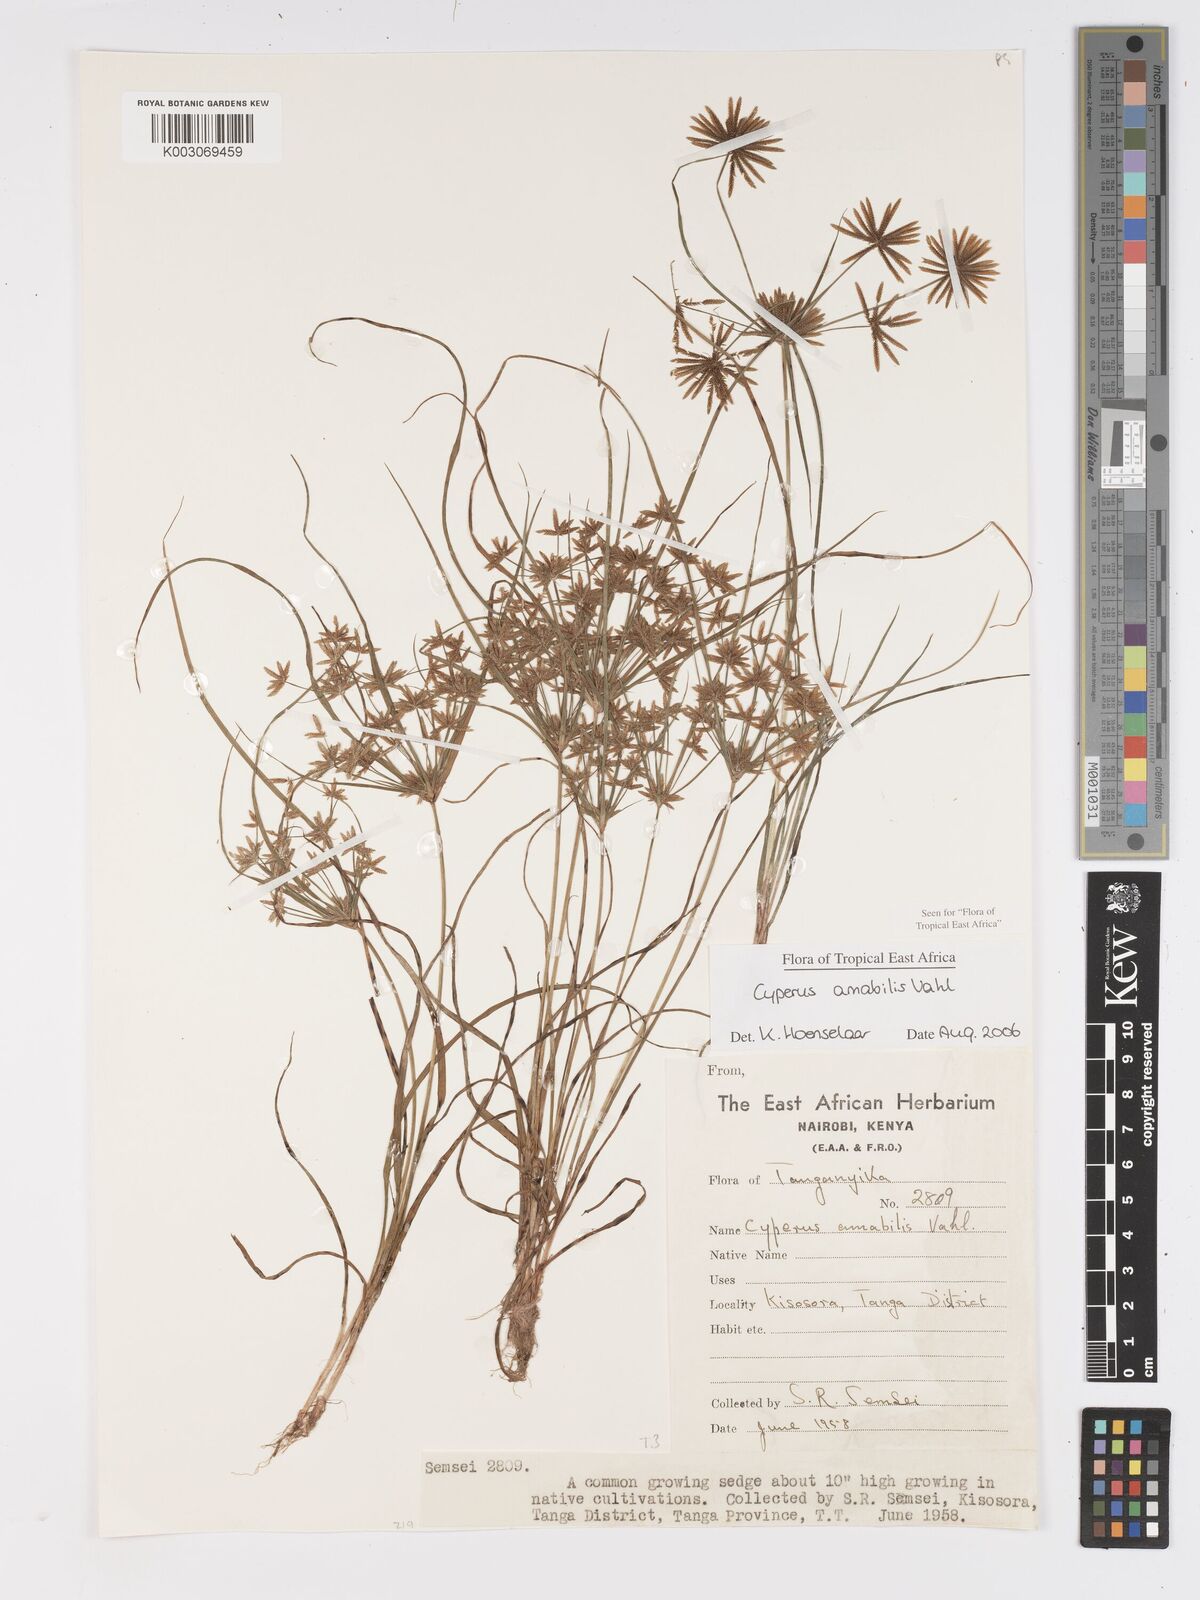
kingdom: Plantae
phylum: Tracheophyta
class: Liliopsida
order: Poales
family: Cyperaceae
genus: Cyperus
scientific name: Cyperus amabilis
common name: Foothill flat sedge
